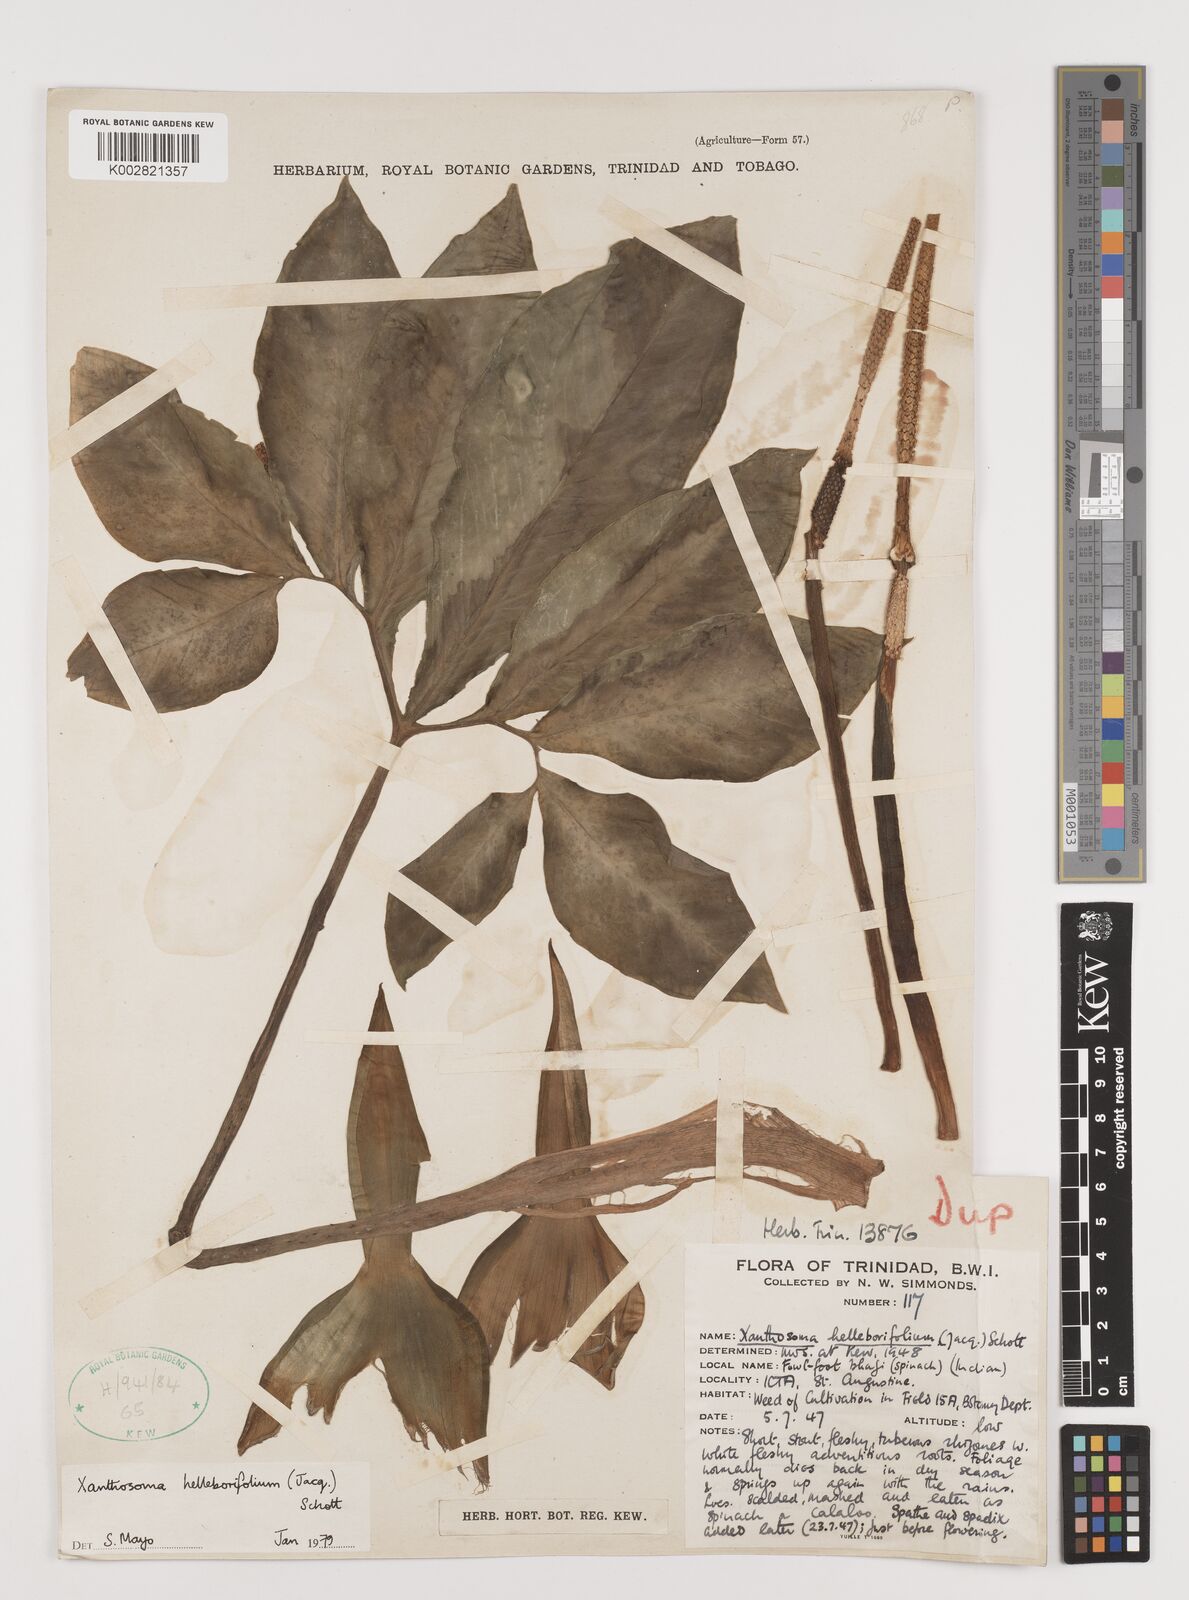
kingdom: Plantae
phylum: Tracheophyta
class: Liliopsida
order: Alismatales
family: Araceae
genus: Xanthosoma
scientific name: Xanthosoma helleborifolium
